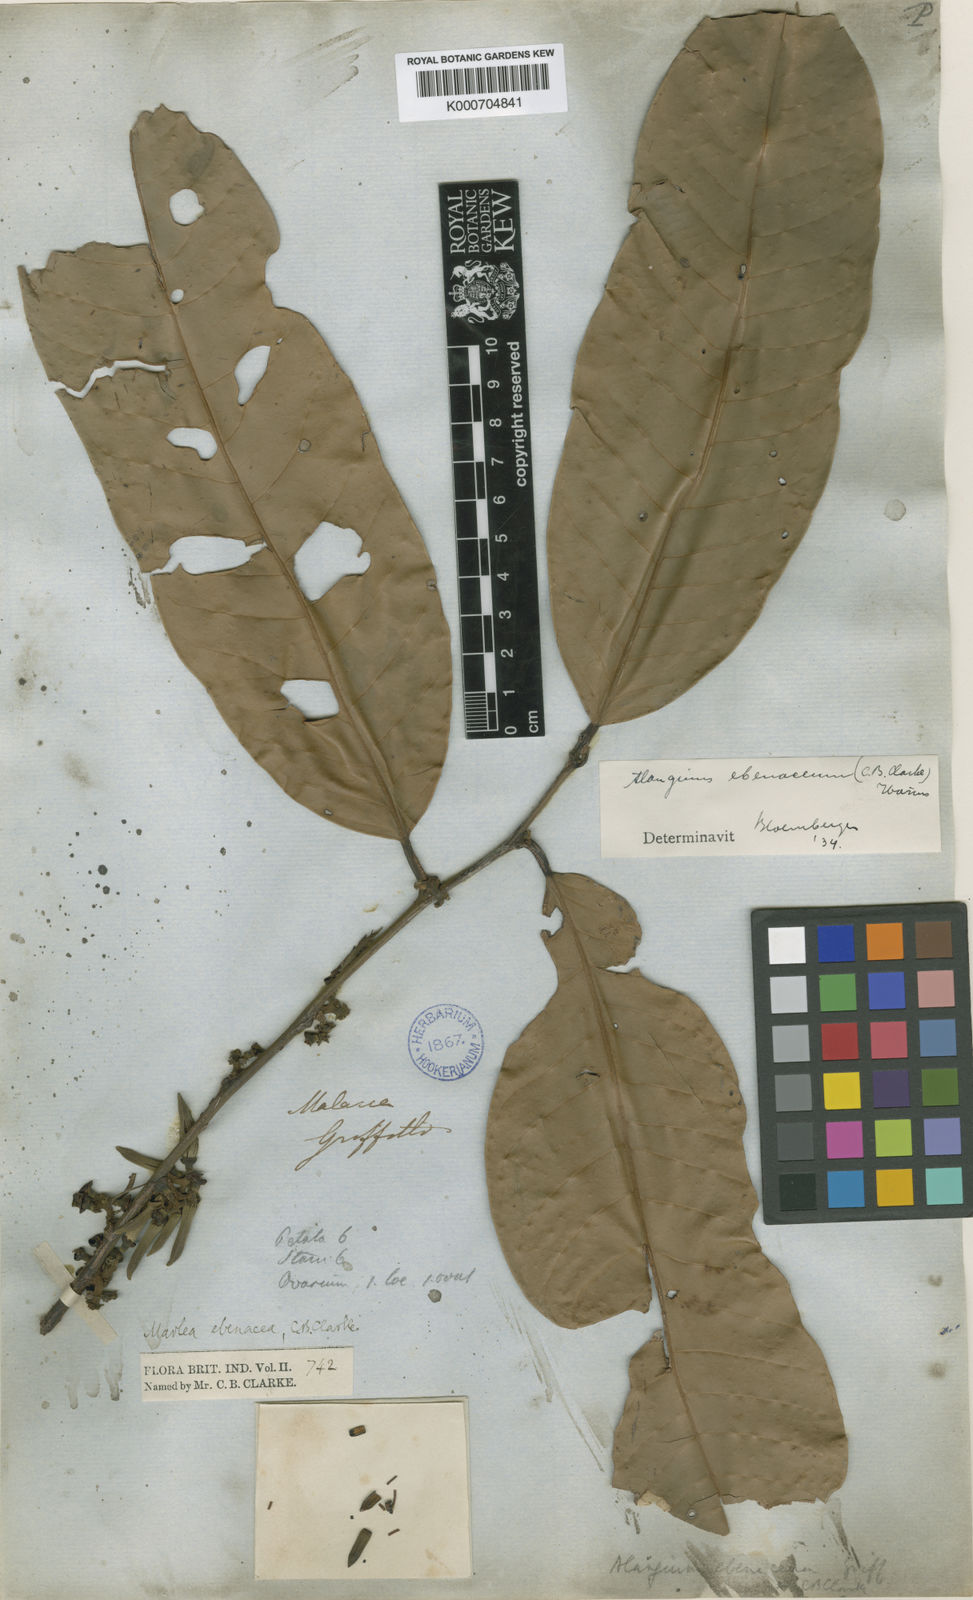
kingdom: Plantae
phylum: Tracheophyta
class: Magnoliopsida
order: Cornales
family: Cornaceae
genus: Alangium
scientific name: Alangium
